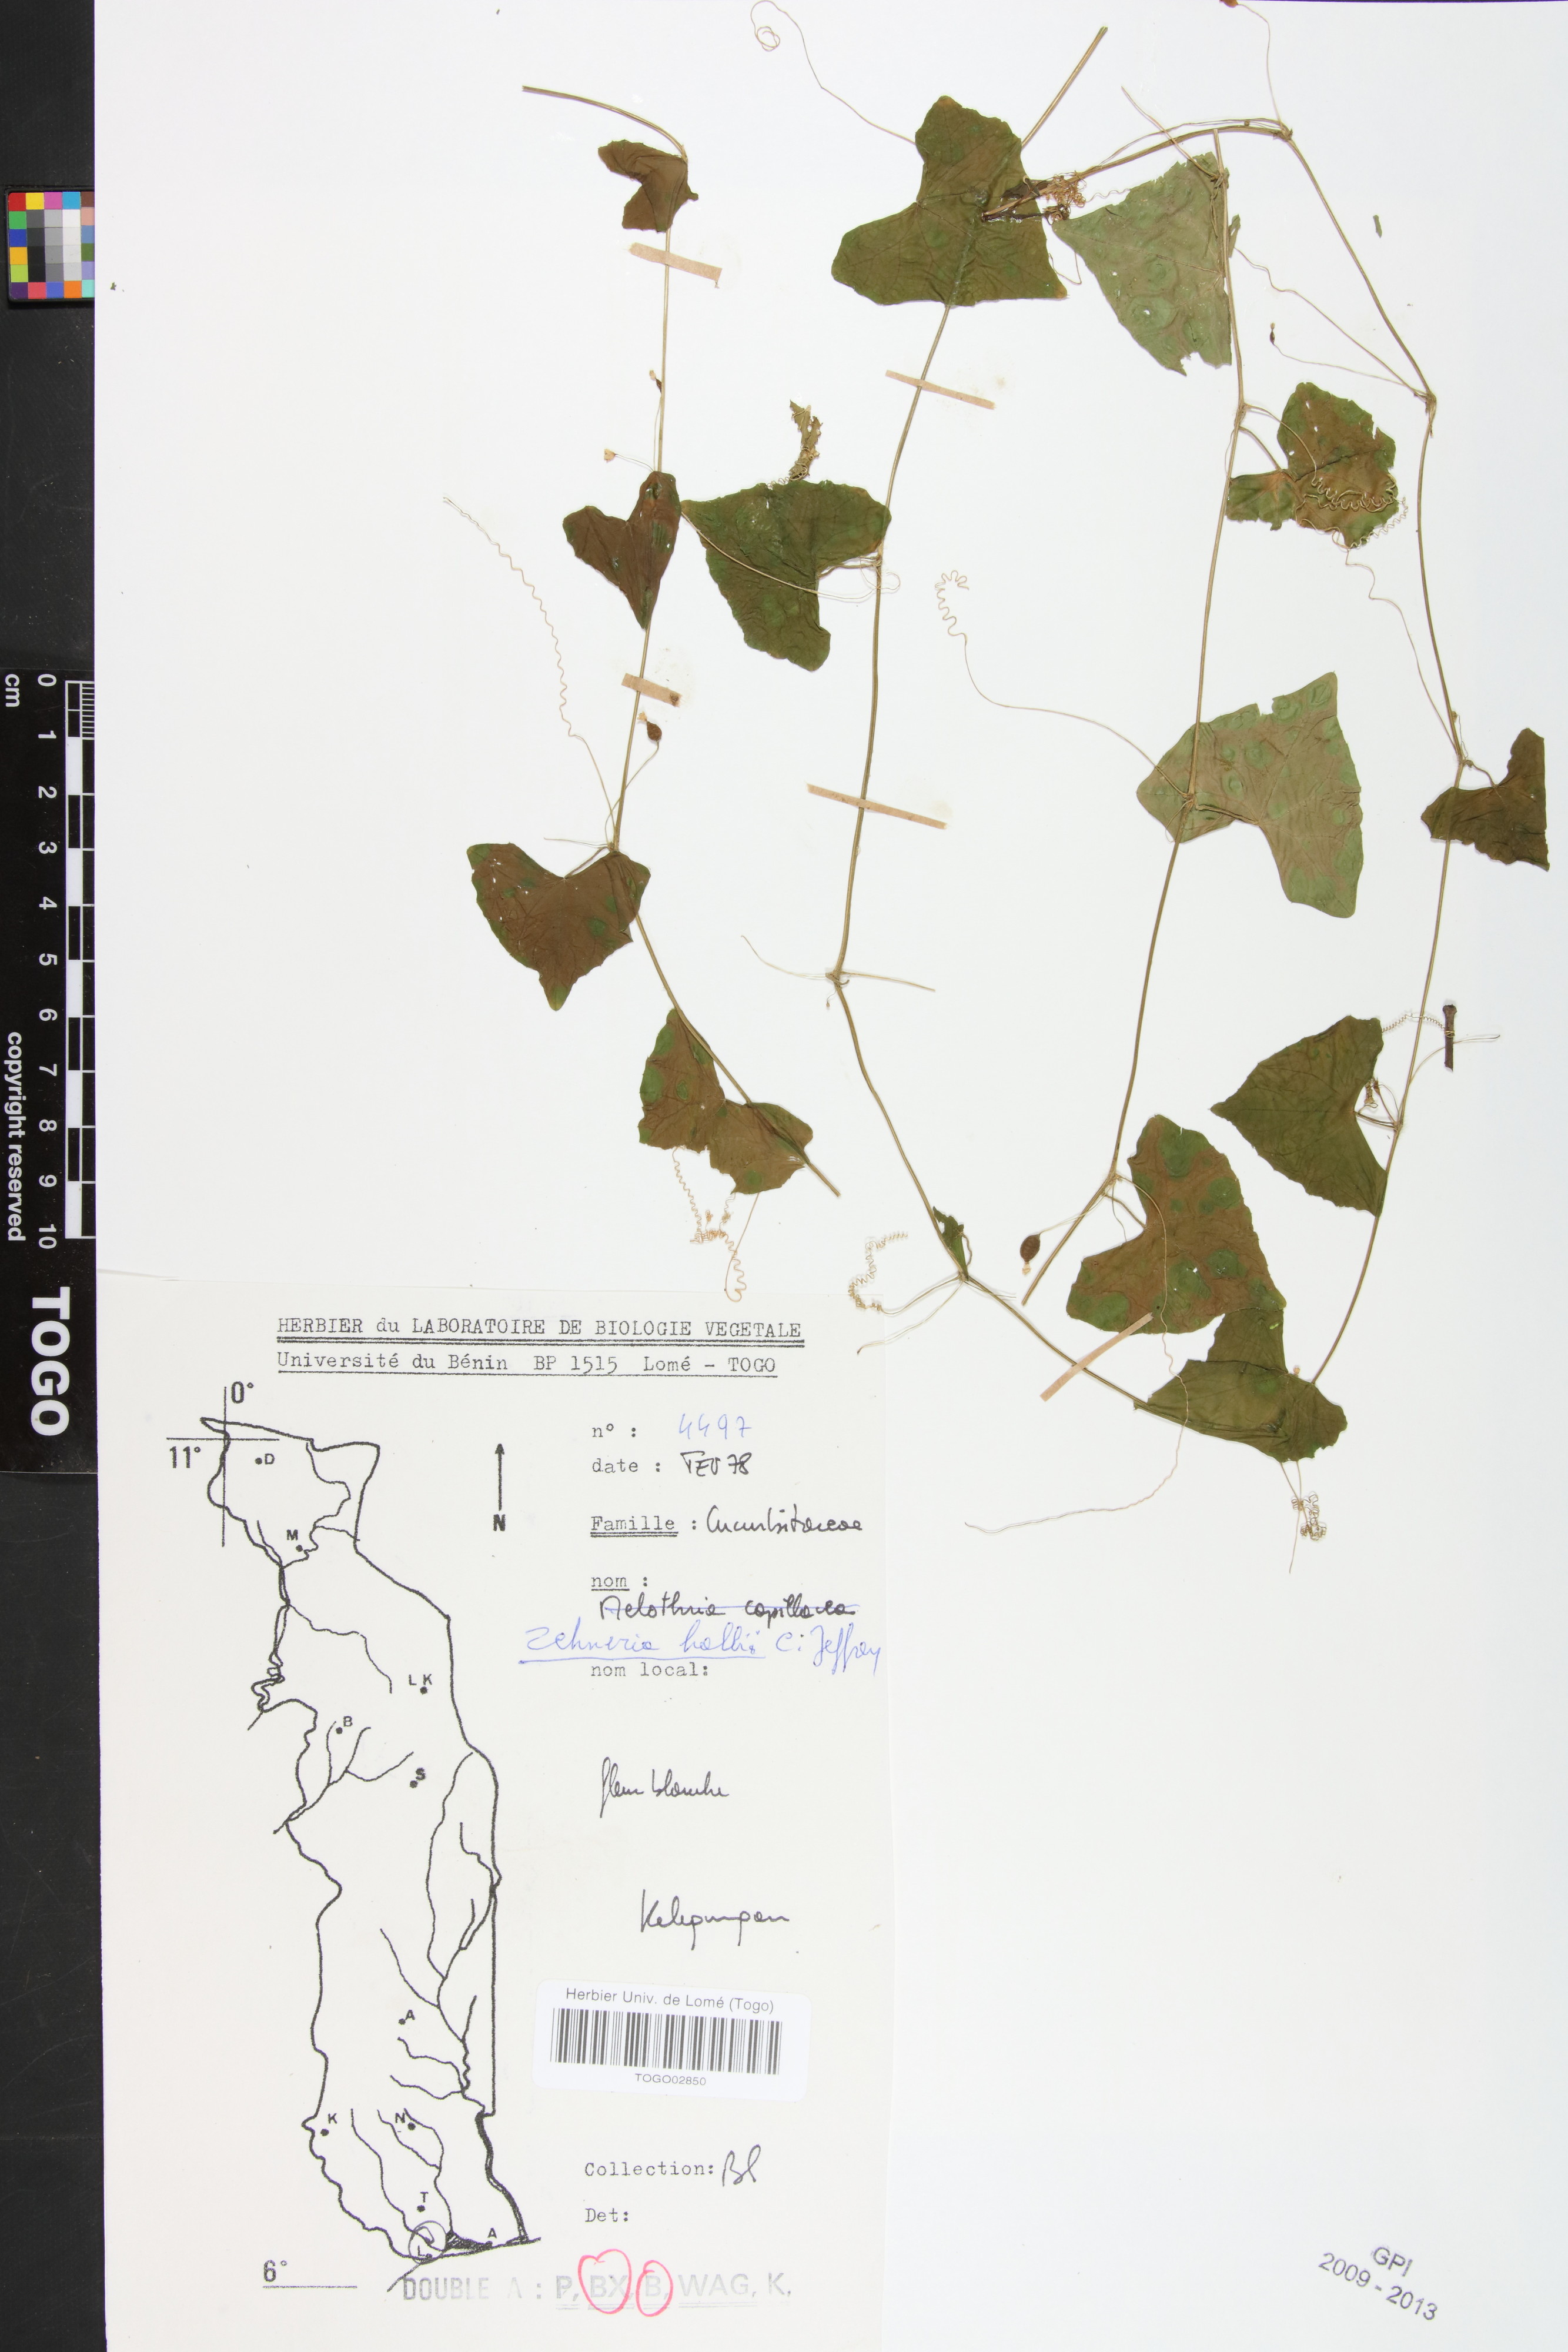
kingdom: Plantae
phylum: Tracheophyta
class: Magnoliopsida
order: Cucurbitales
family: Cucurbitaceae
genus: Zehneria
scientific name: Zehneria hallii
